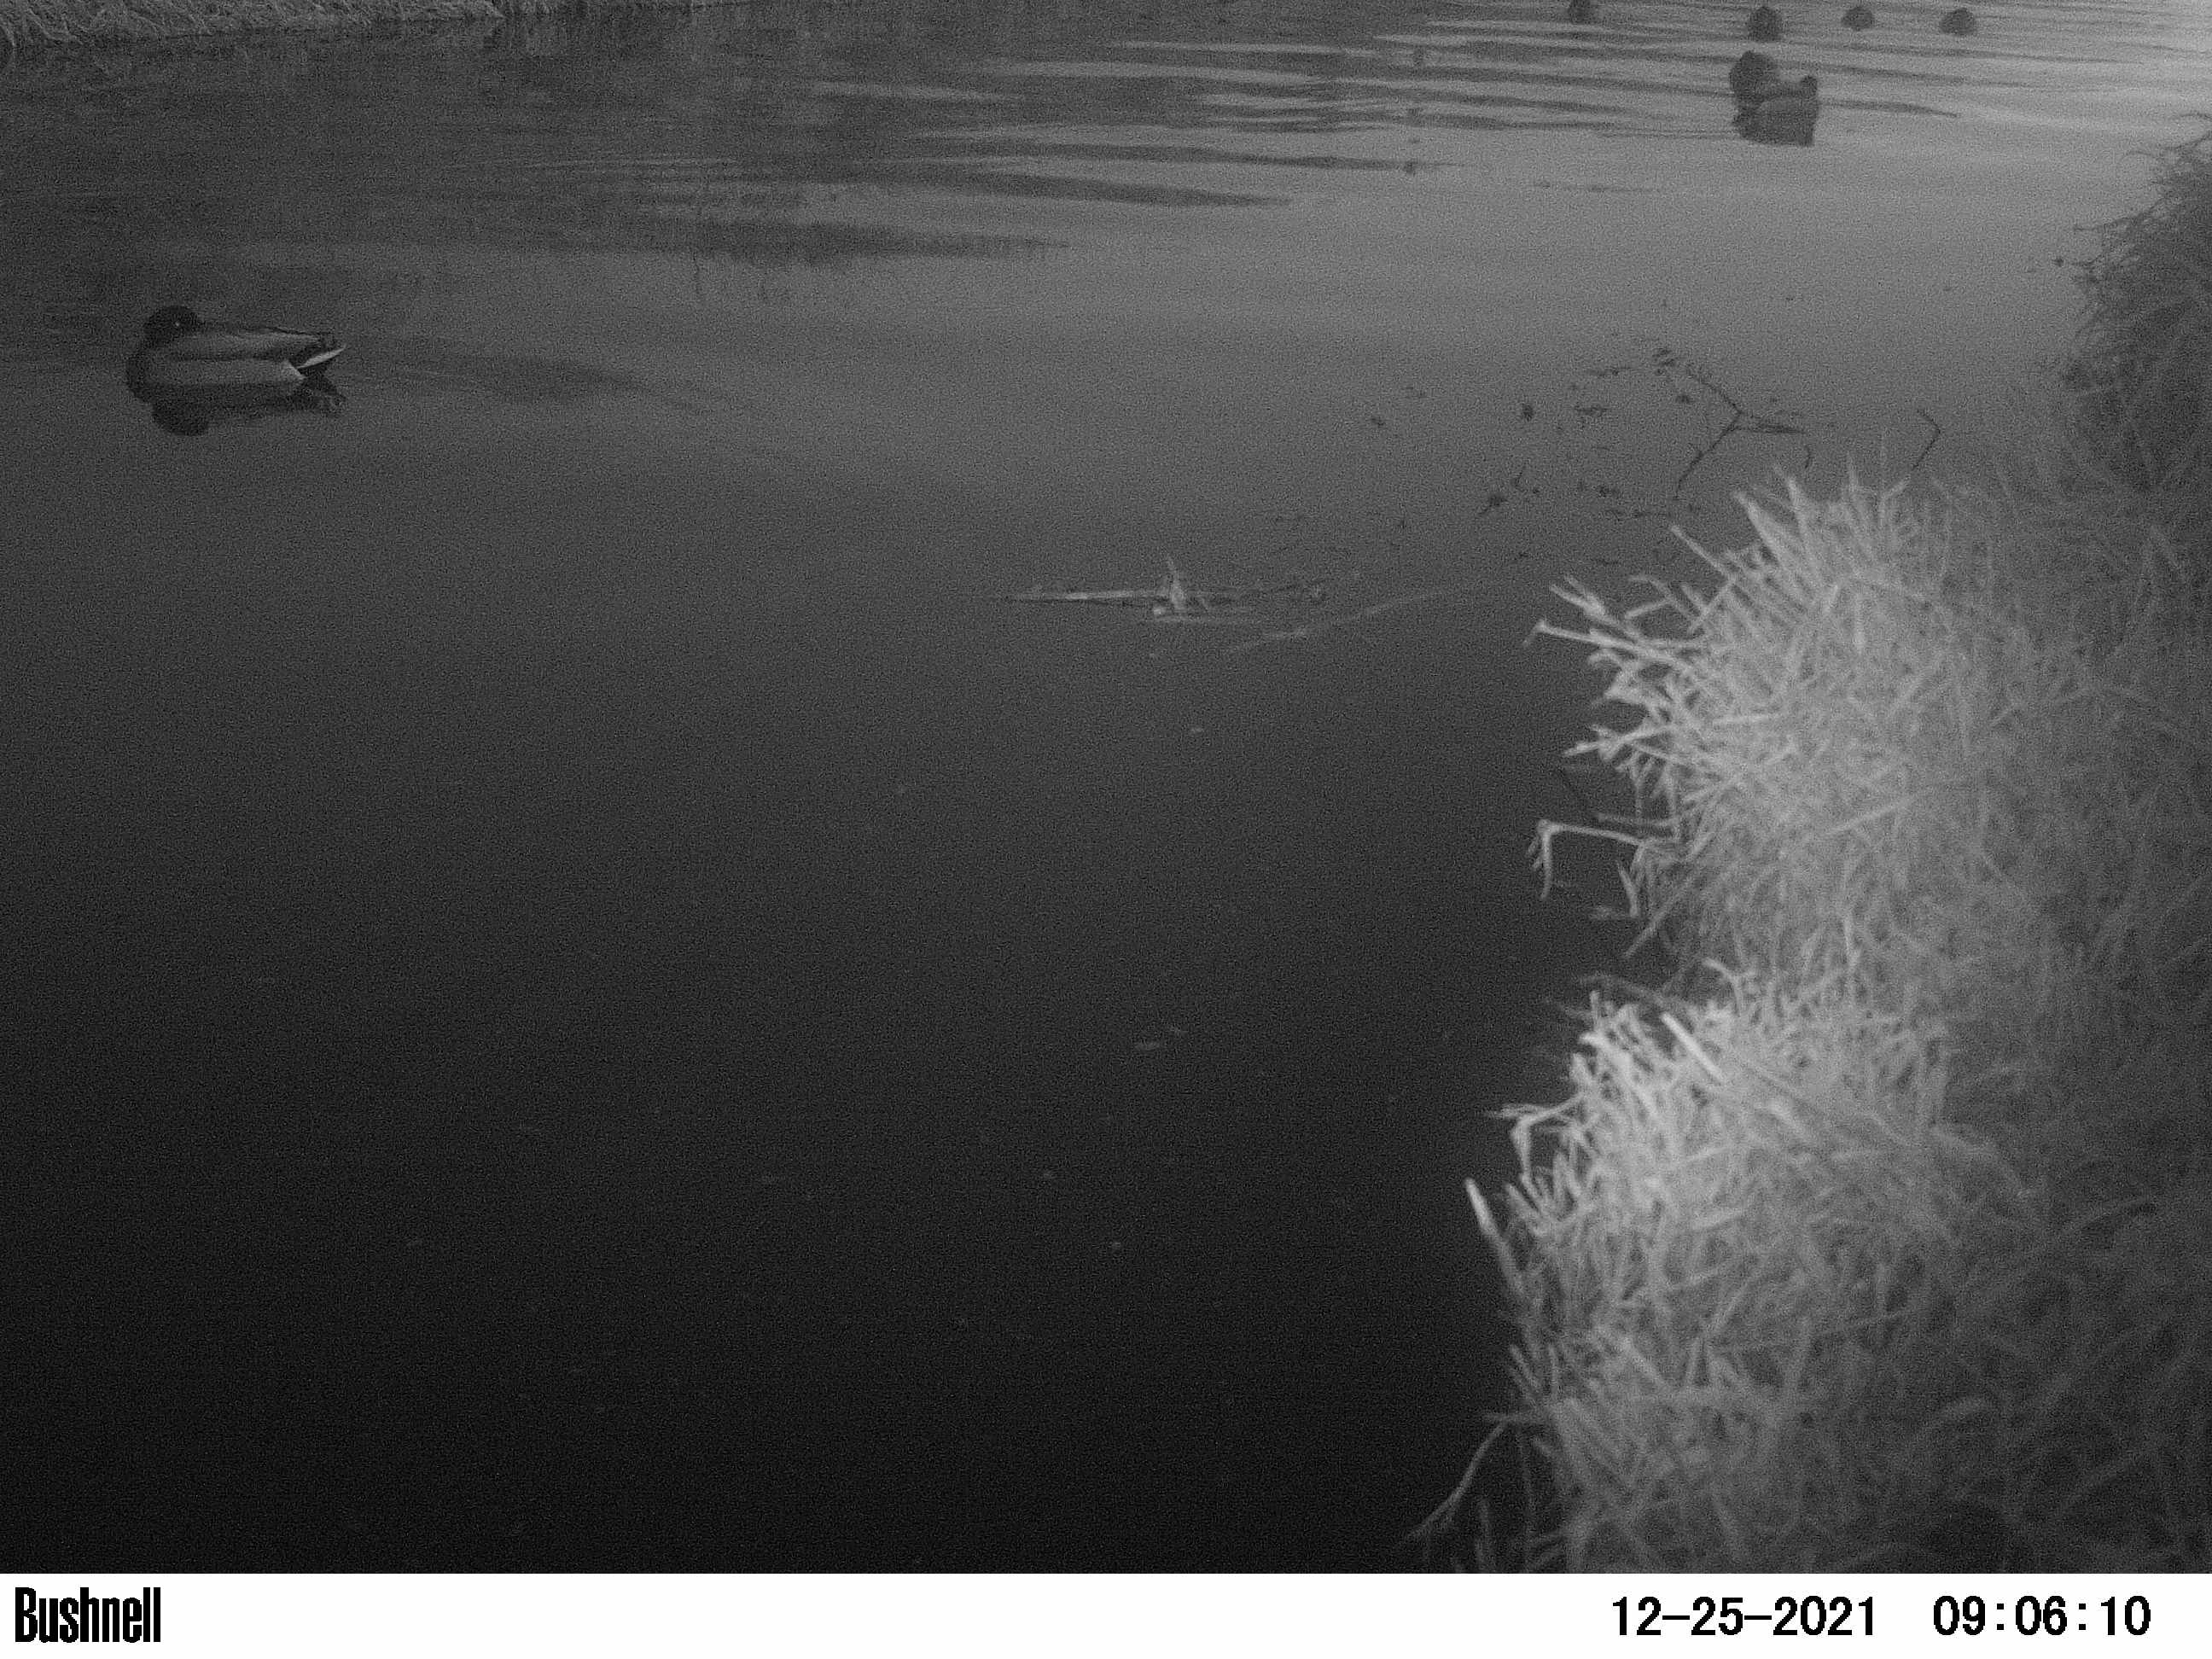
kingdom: Animalia
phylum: Chordata
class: Aves
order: Anseriformes
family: Anatidae
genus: Anas
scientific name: Anas
